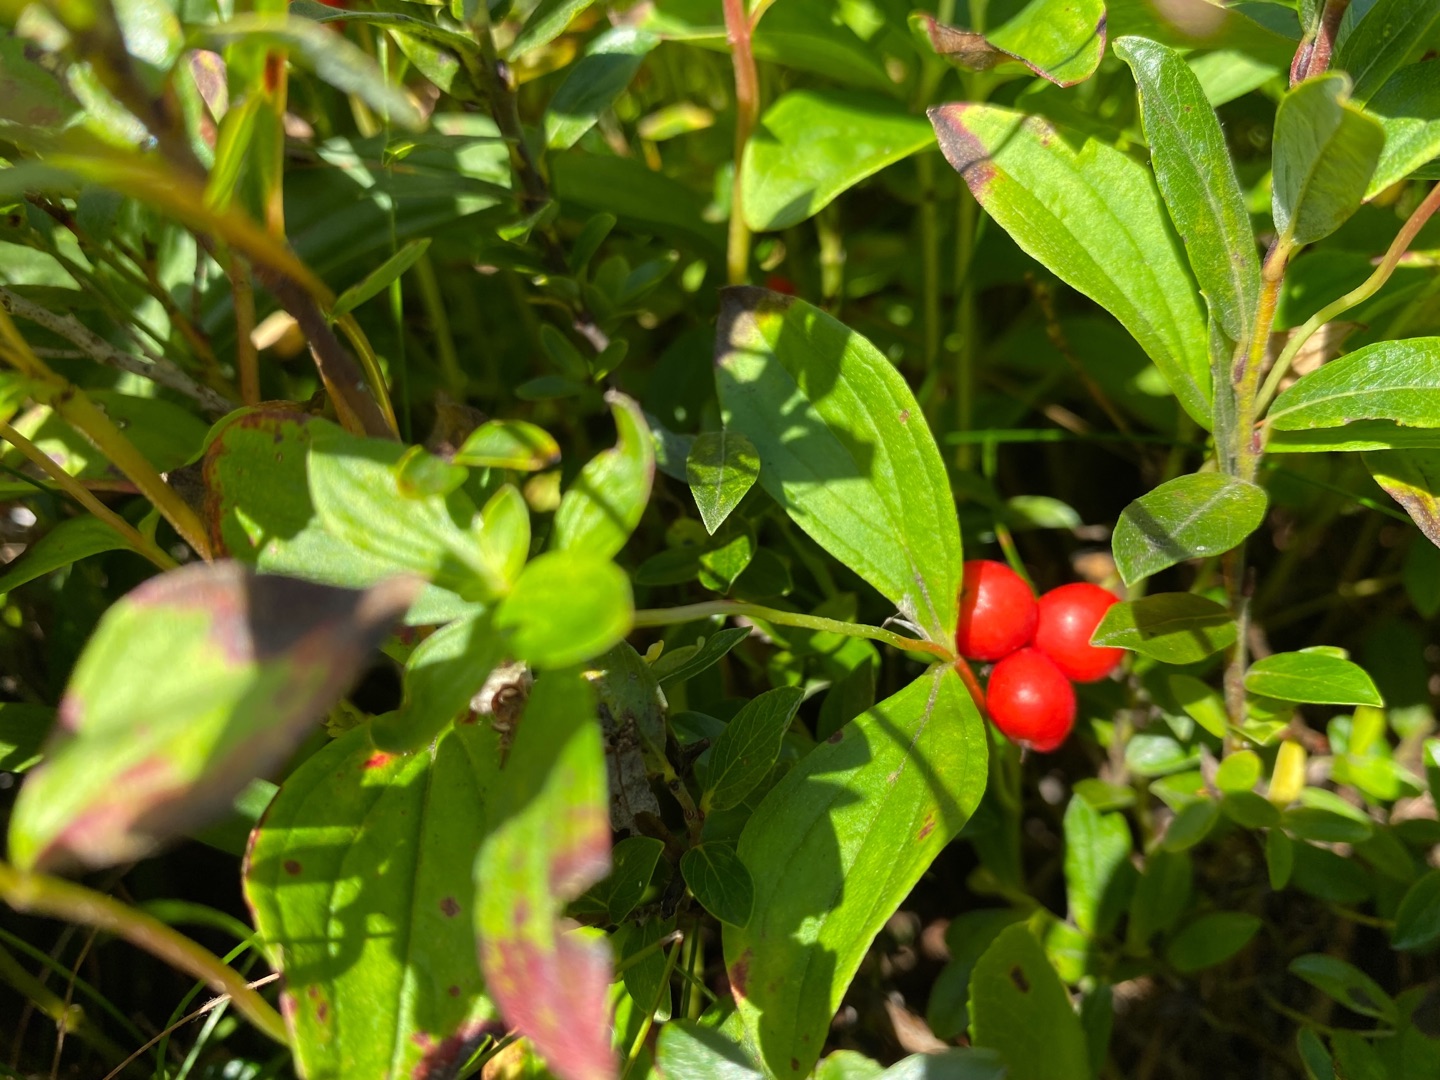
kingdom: Plantae
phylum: Tracheophyta
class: Magnoliopsida
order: Cornales
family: Cornaceae
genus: Cornus
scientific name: Cornus suecica
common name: Hønsebær
